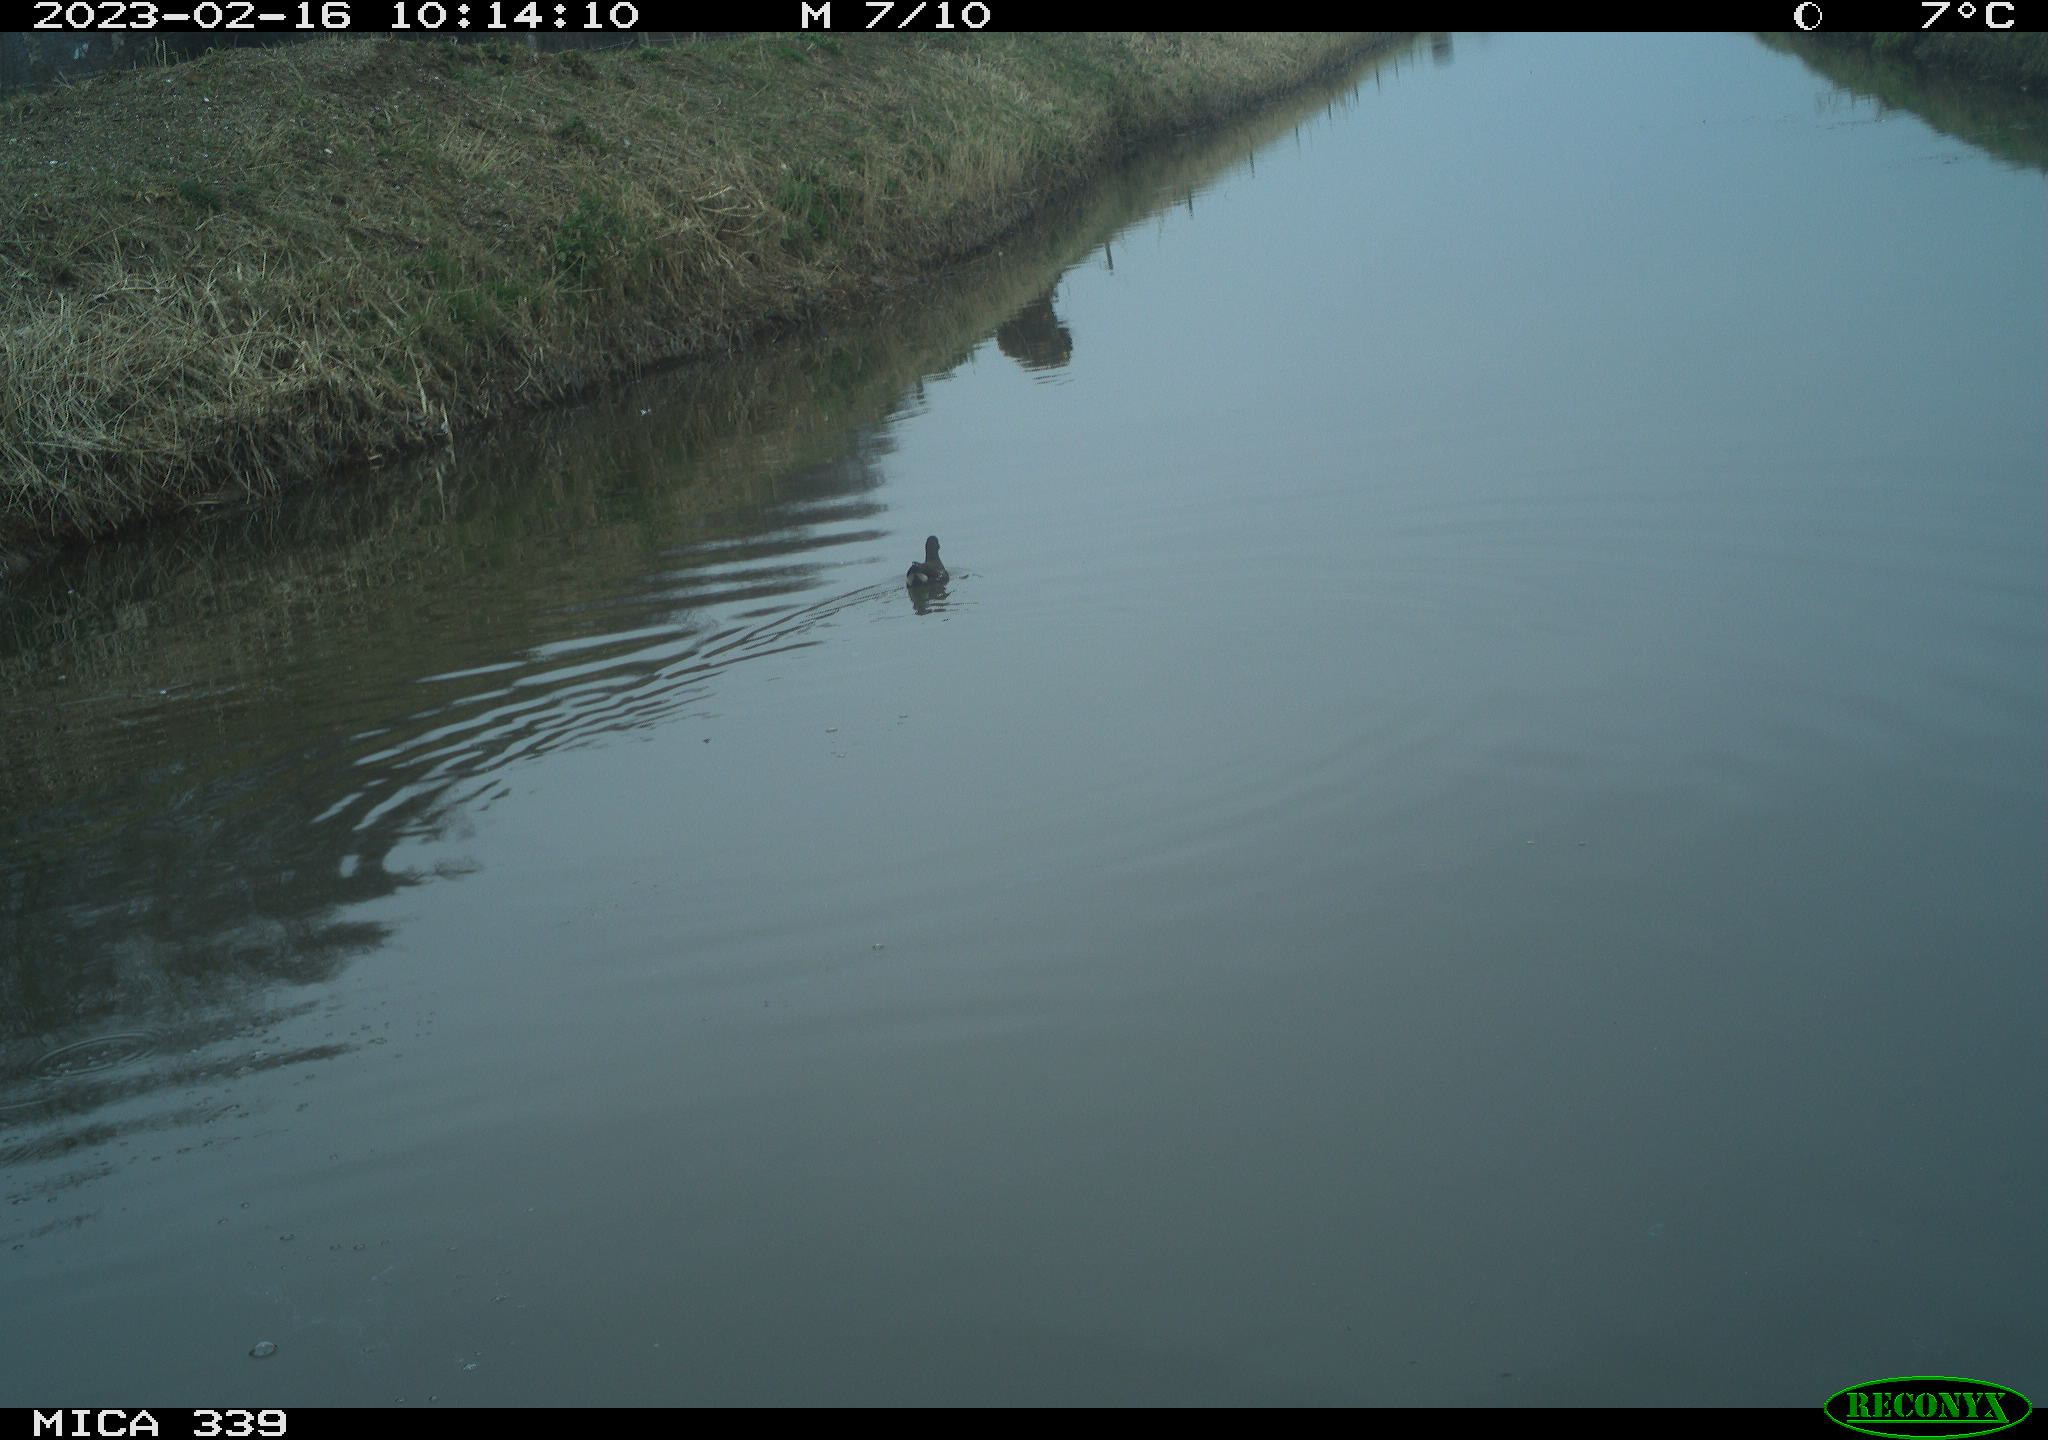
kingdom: Animalia
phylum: Chordata
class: Aves
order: Gruiformes
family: Rallidae
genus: Gallinula
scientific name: Gallinula chloropus
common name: Common moorhen
